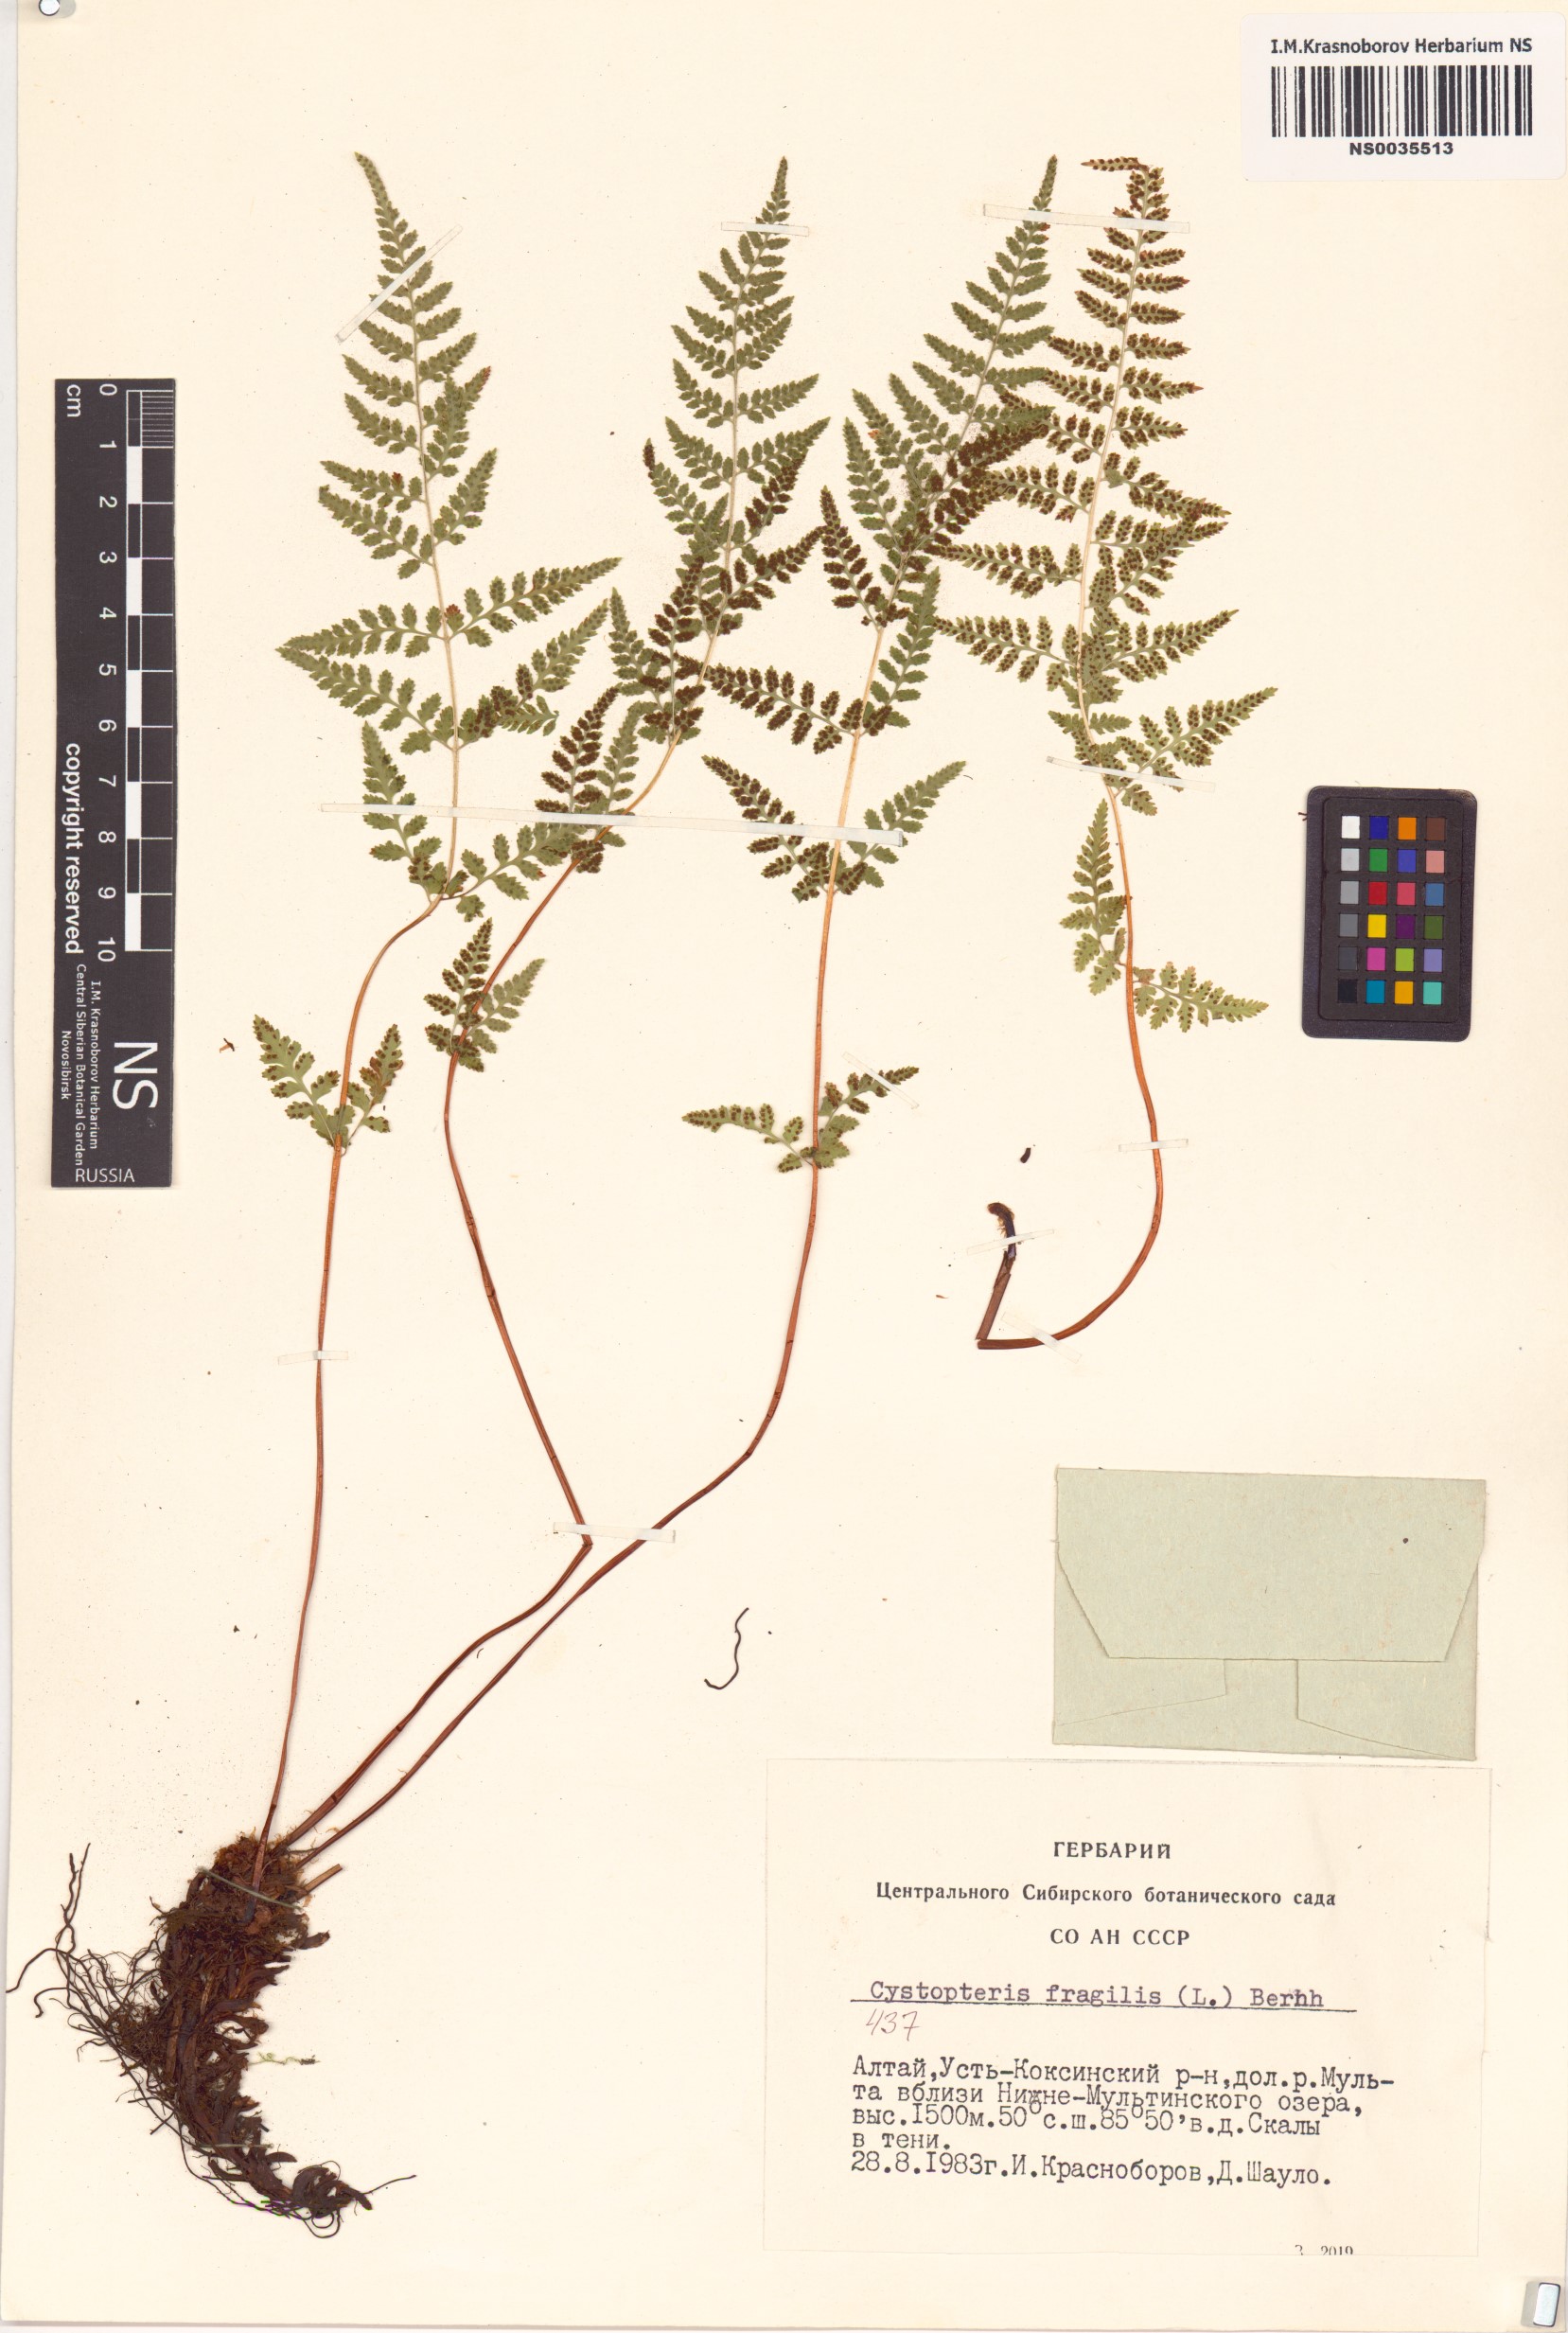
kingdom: Plantae
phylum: Tracheophyta
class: Polypodiopsida
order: Polypodiales
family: Cystopteridaceae
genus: Cystopteris
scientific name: Cystopteris fragilis
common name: Brittle bladder fern
